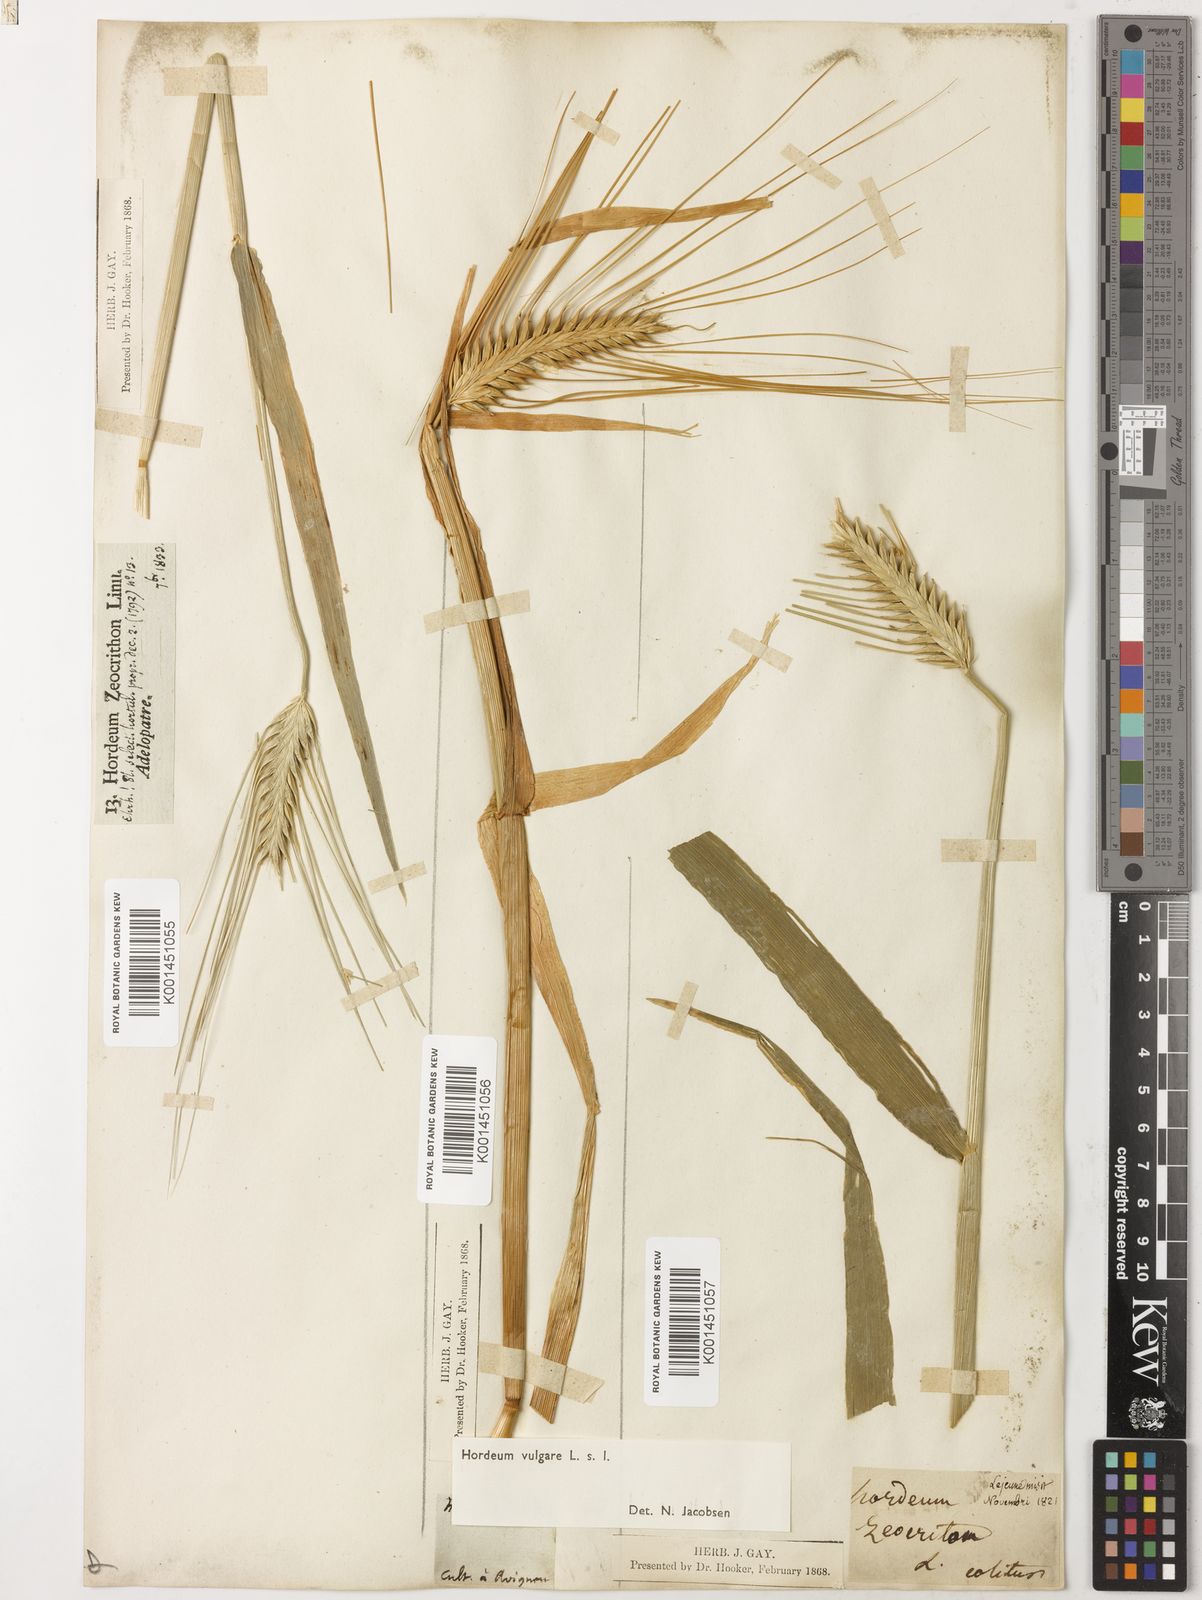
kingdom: Plantae
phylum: Tracheophyta
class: Liliopsida
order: Poales
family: Poaceae
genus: Hordeum
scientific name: Hordeum vulgare
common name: Common barley
